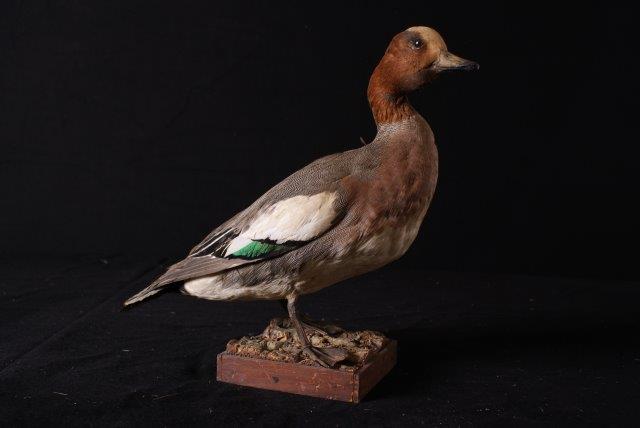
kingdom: Animalia
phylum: Chordata
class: Aves
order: Anseriformes
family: Anatidae
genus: Mareca
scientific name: Mareca penelope
